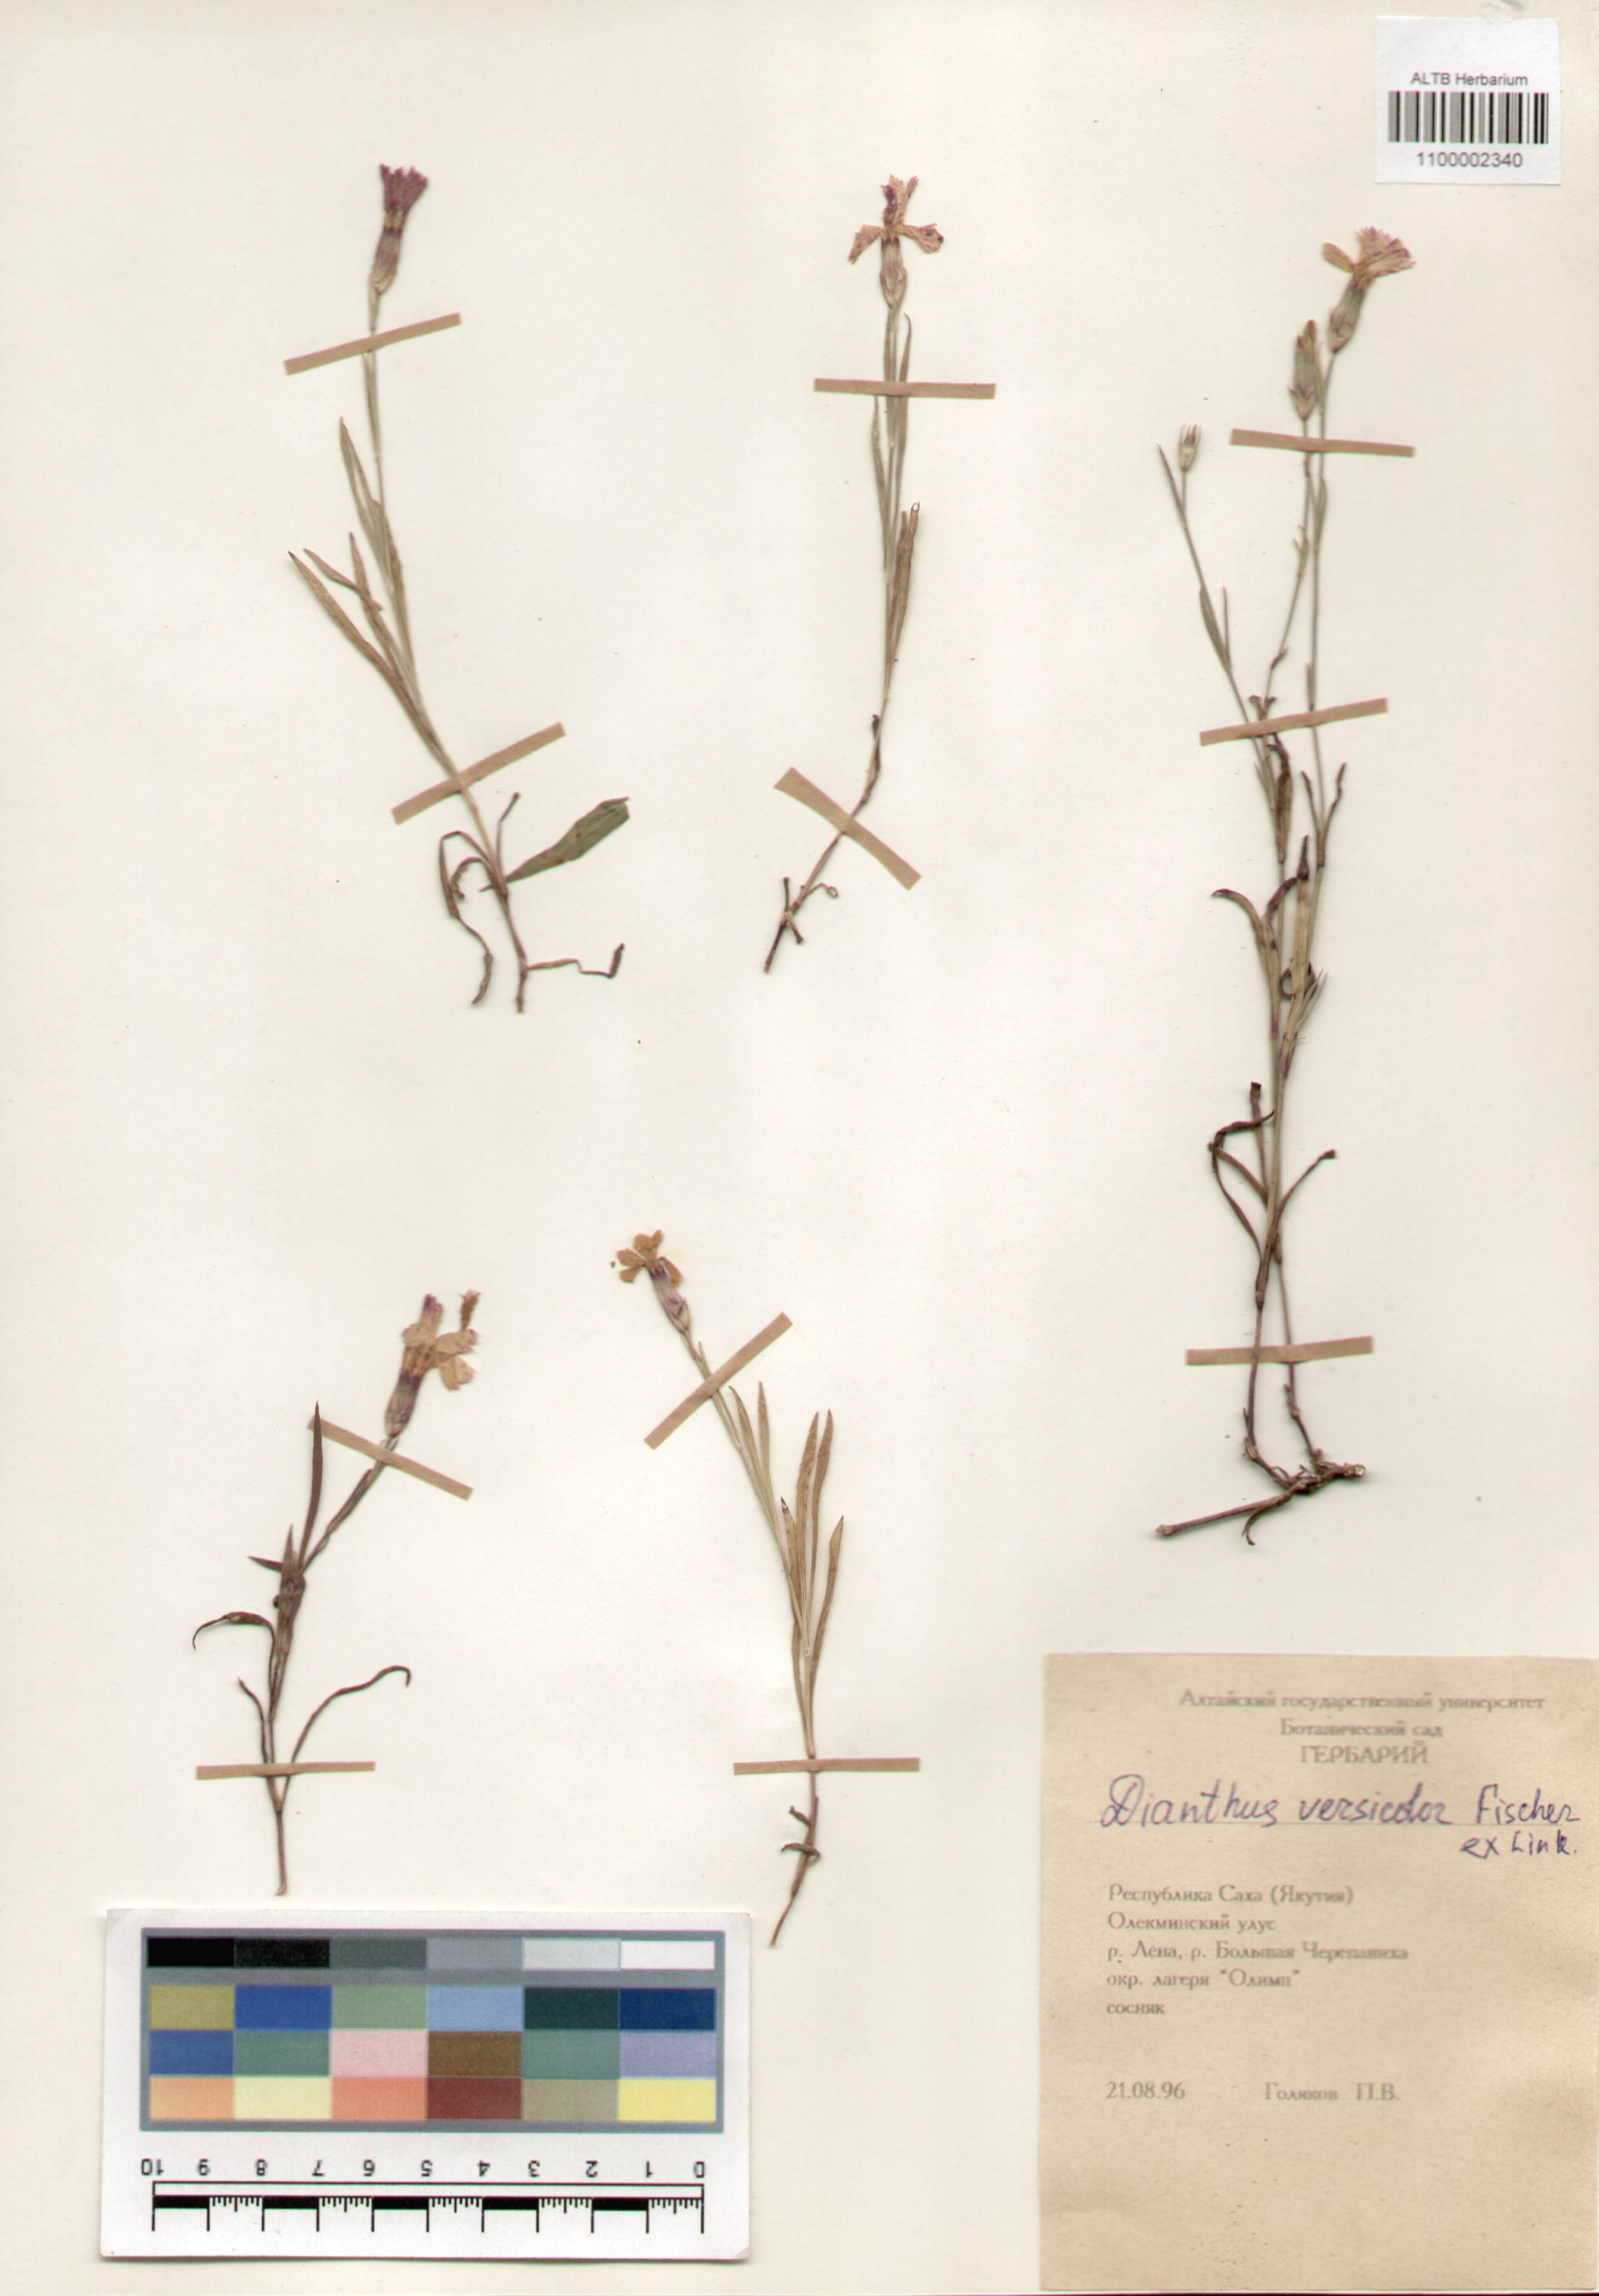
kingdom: Plantae
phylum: Tracheophyta
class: Magnoliopsida
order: Caryophyllales
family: Caryophyllaceae
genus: Dianthus
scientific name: Dianthus chinensis
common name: Rainbow pink
